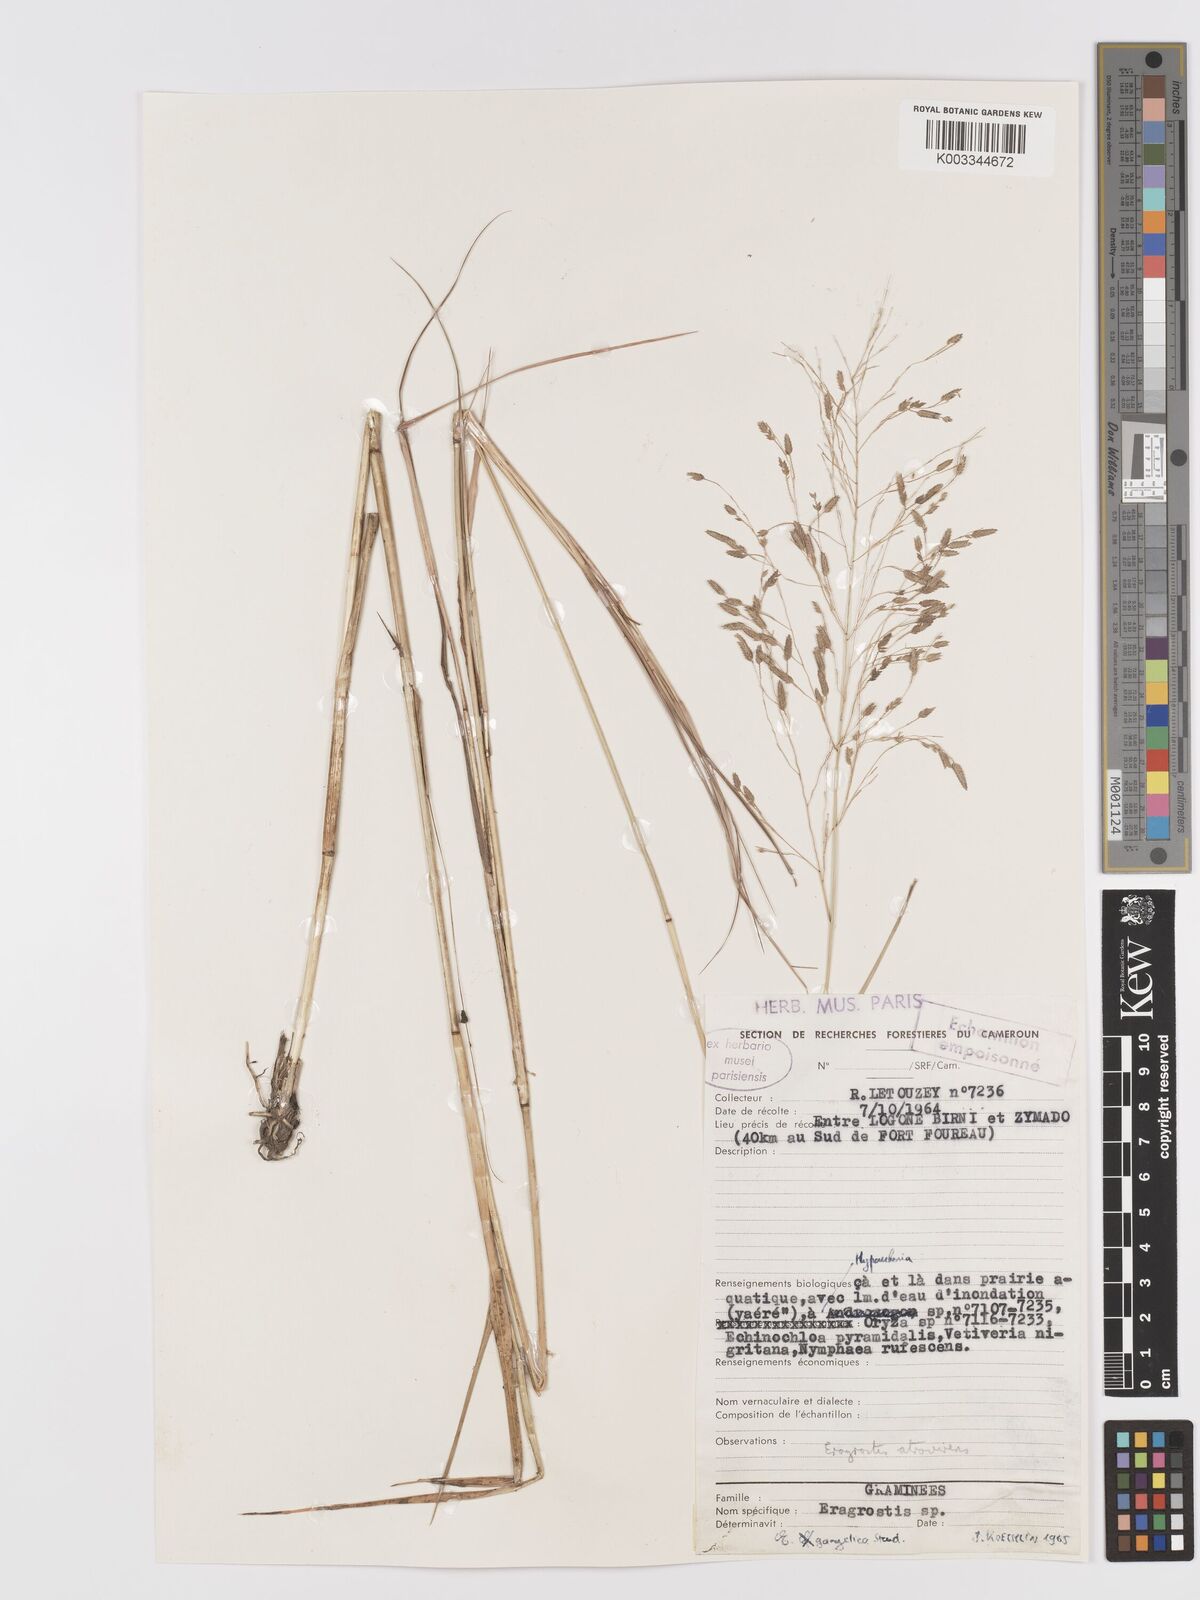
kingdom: Plantae
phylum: Tracheophyta
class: Liliopsida
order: Poales
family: Poaceae
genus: Eragrostis
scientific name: Eragrostis atrovirens
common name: Thalia lovegrass
